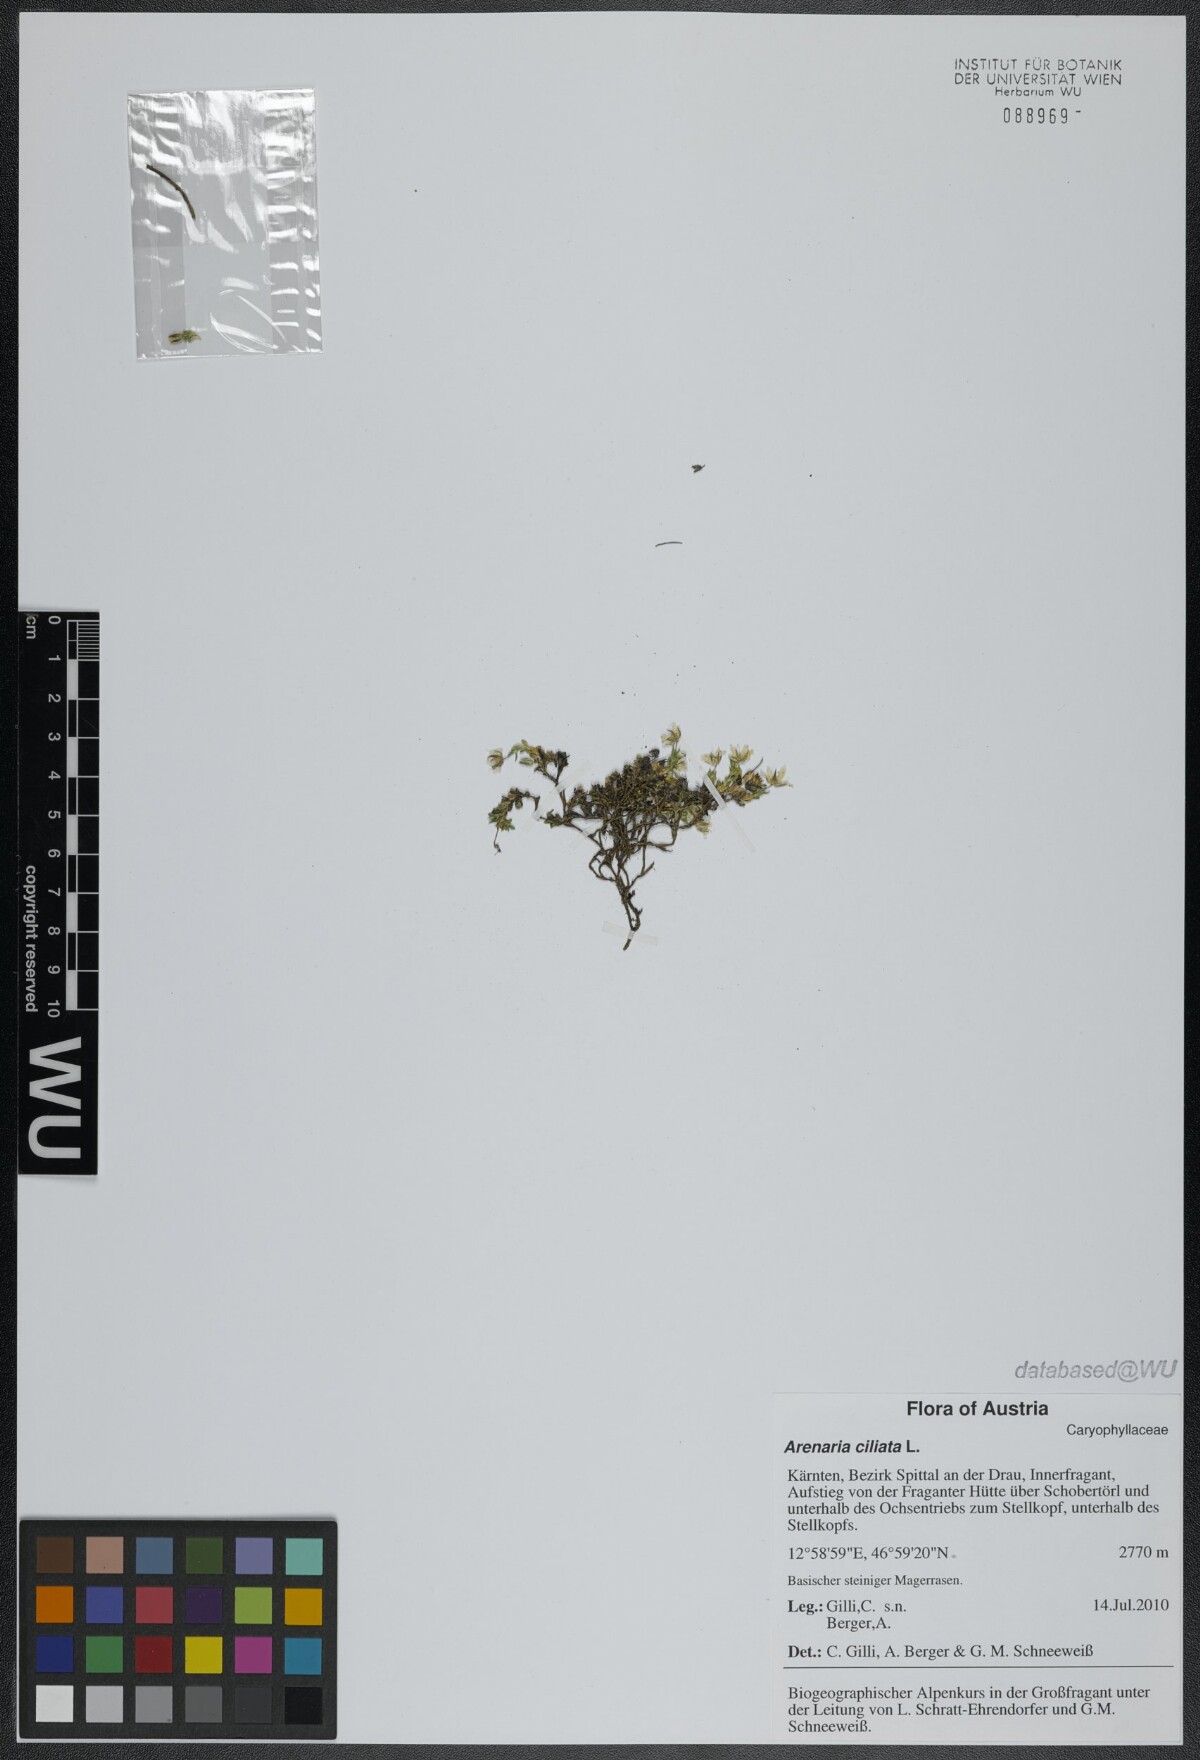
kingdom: Plantae
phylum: Tracheophyta
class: Magnoliopsida
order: Caryophyllales
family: Caryophyllaceae
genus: Arenaria
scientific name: Arenaria ciliata
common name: Fringed sandwort
